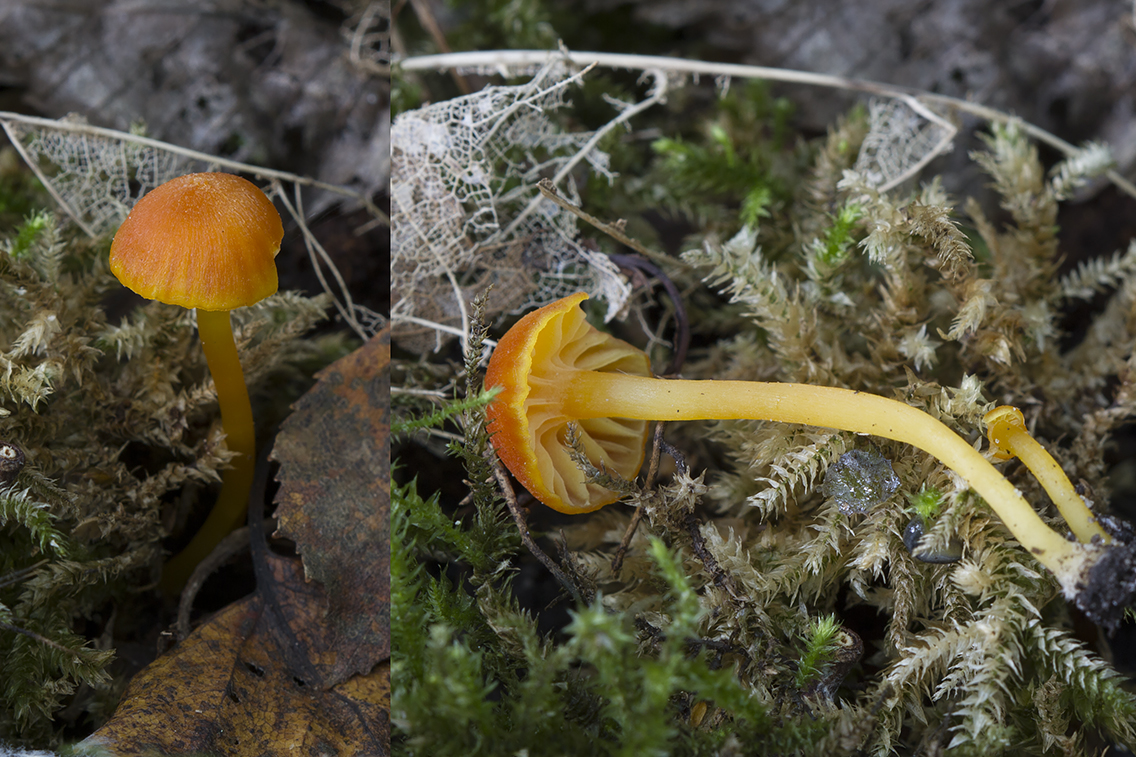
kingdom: Fungi
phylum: Basidiomycota
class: Agaricomycetes
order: Agaricales
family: Hygrophoraceae
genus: Hygrocybe
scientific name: Hygrocybe miniata
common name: mønje-vokshat
